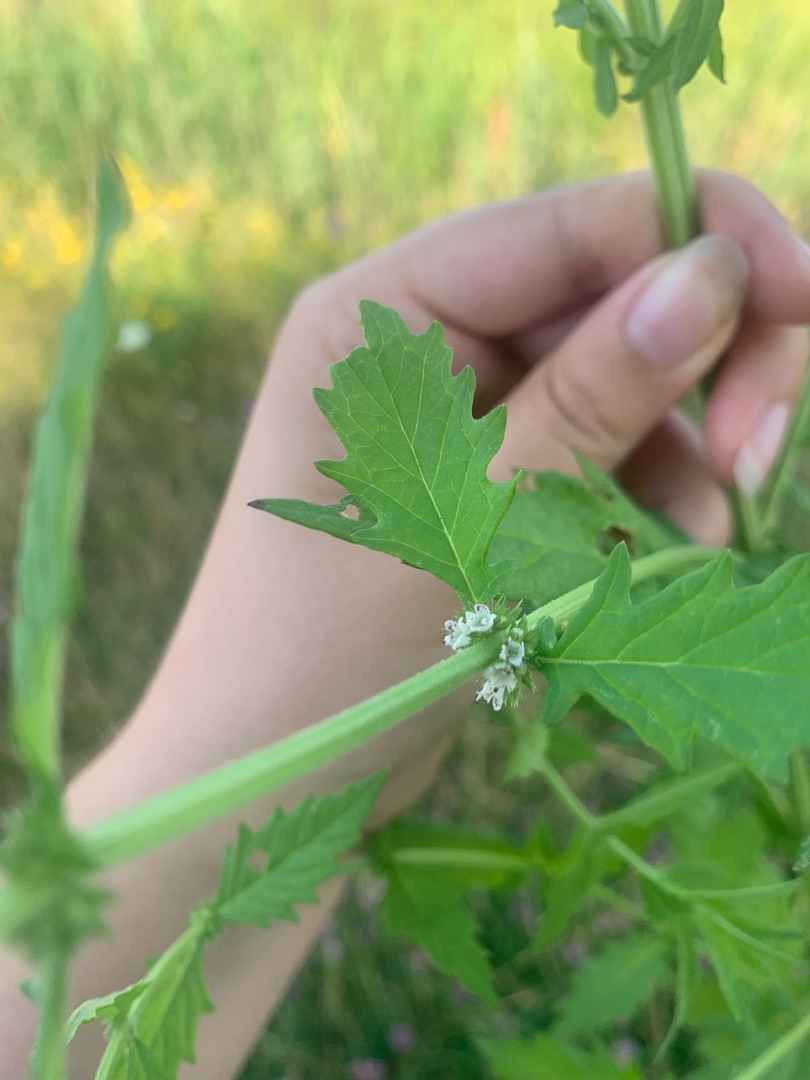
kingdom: Plantae
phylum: Tracheophyta
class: Magnoliopsida
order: Lamiales
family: Lamiaceae
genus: Lycopus
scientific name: Lycopus europaeus
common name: Sværtevæld
